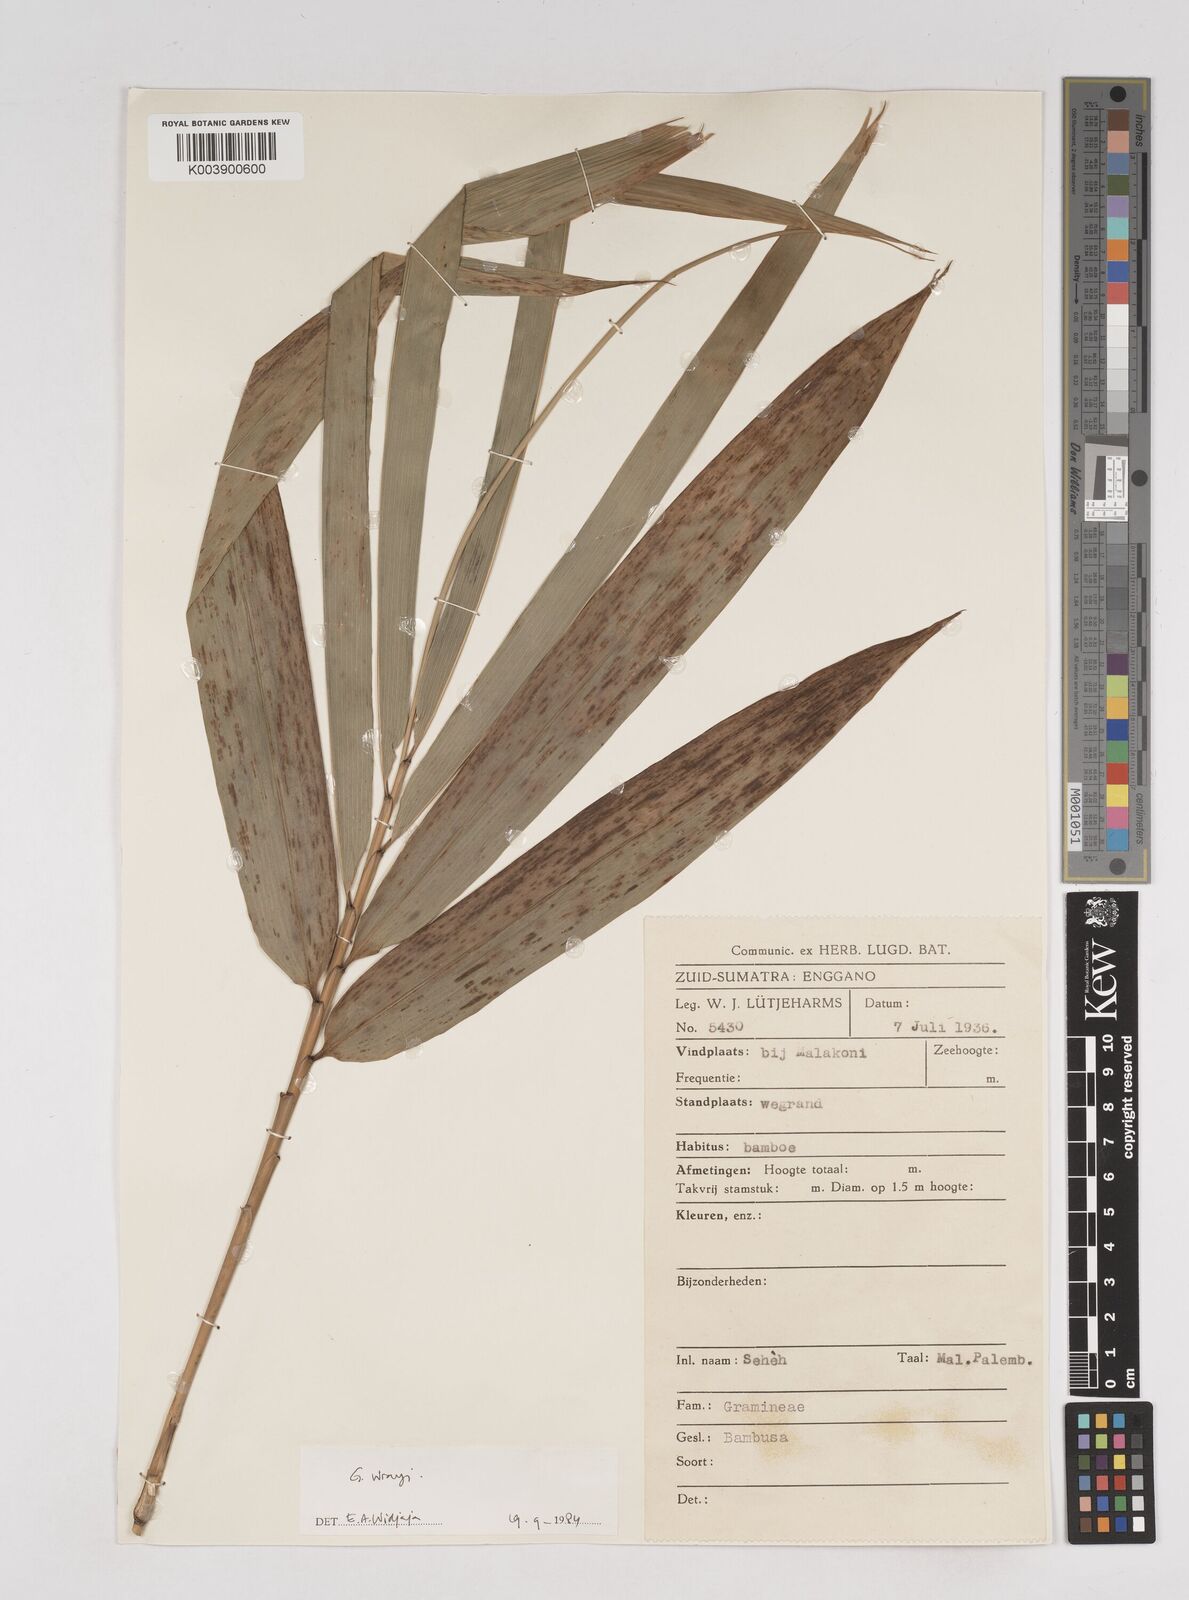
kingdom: Plantae
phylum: Tracheophyta
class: Liliopsida
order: Poales
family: Poaceae
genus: Gigantochloa
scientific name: Gigantochloa wrayi
